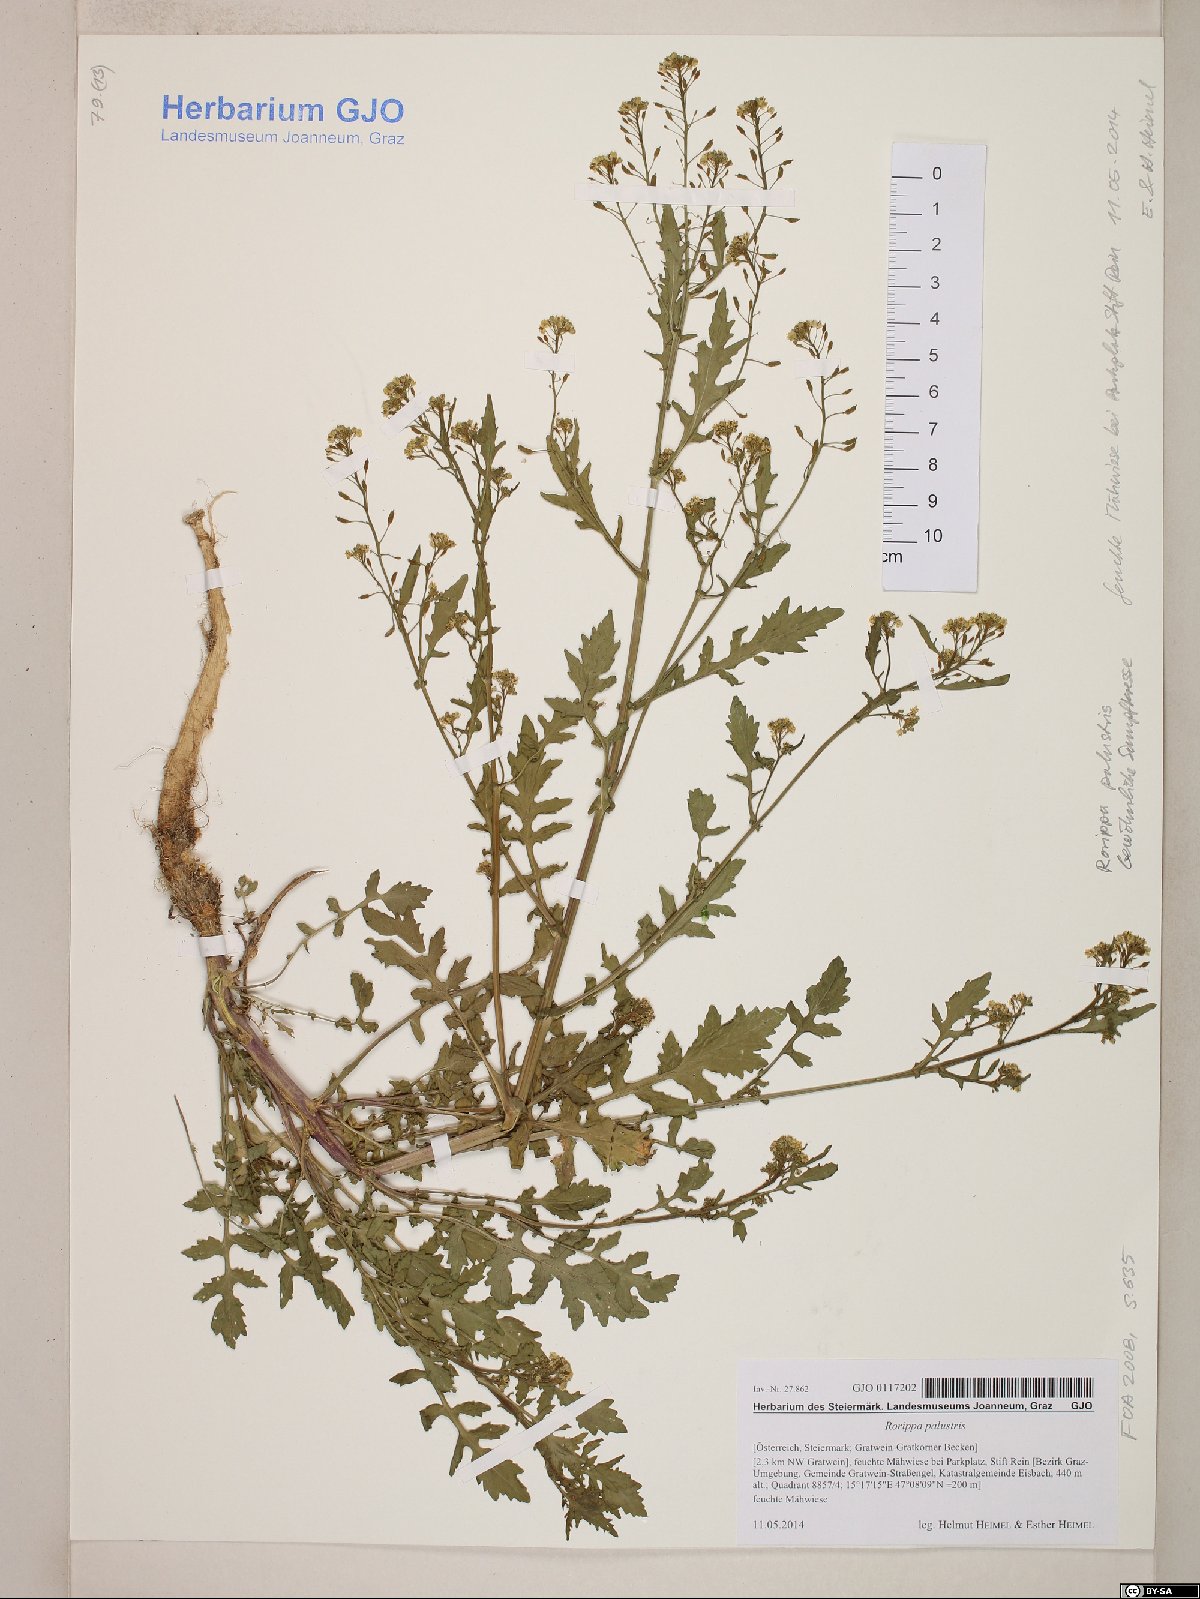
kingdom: Plantae
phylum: Tracheophyta
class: Magnoliopsida
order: Brassicales
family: Brassicaceae
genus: Rorippa
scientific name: Rorippa palustris
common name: Marsh yellow-cress
